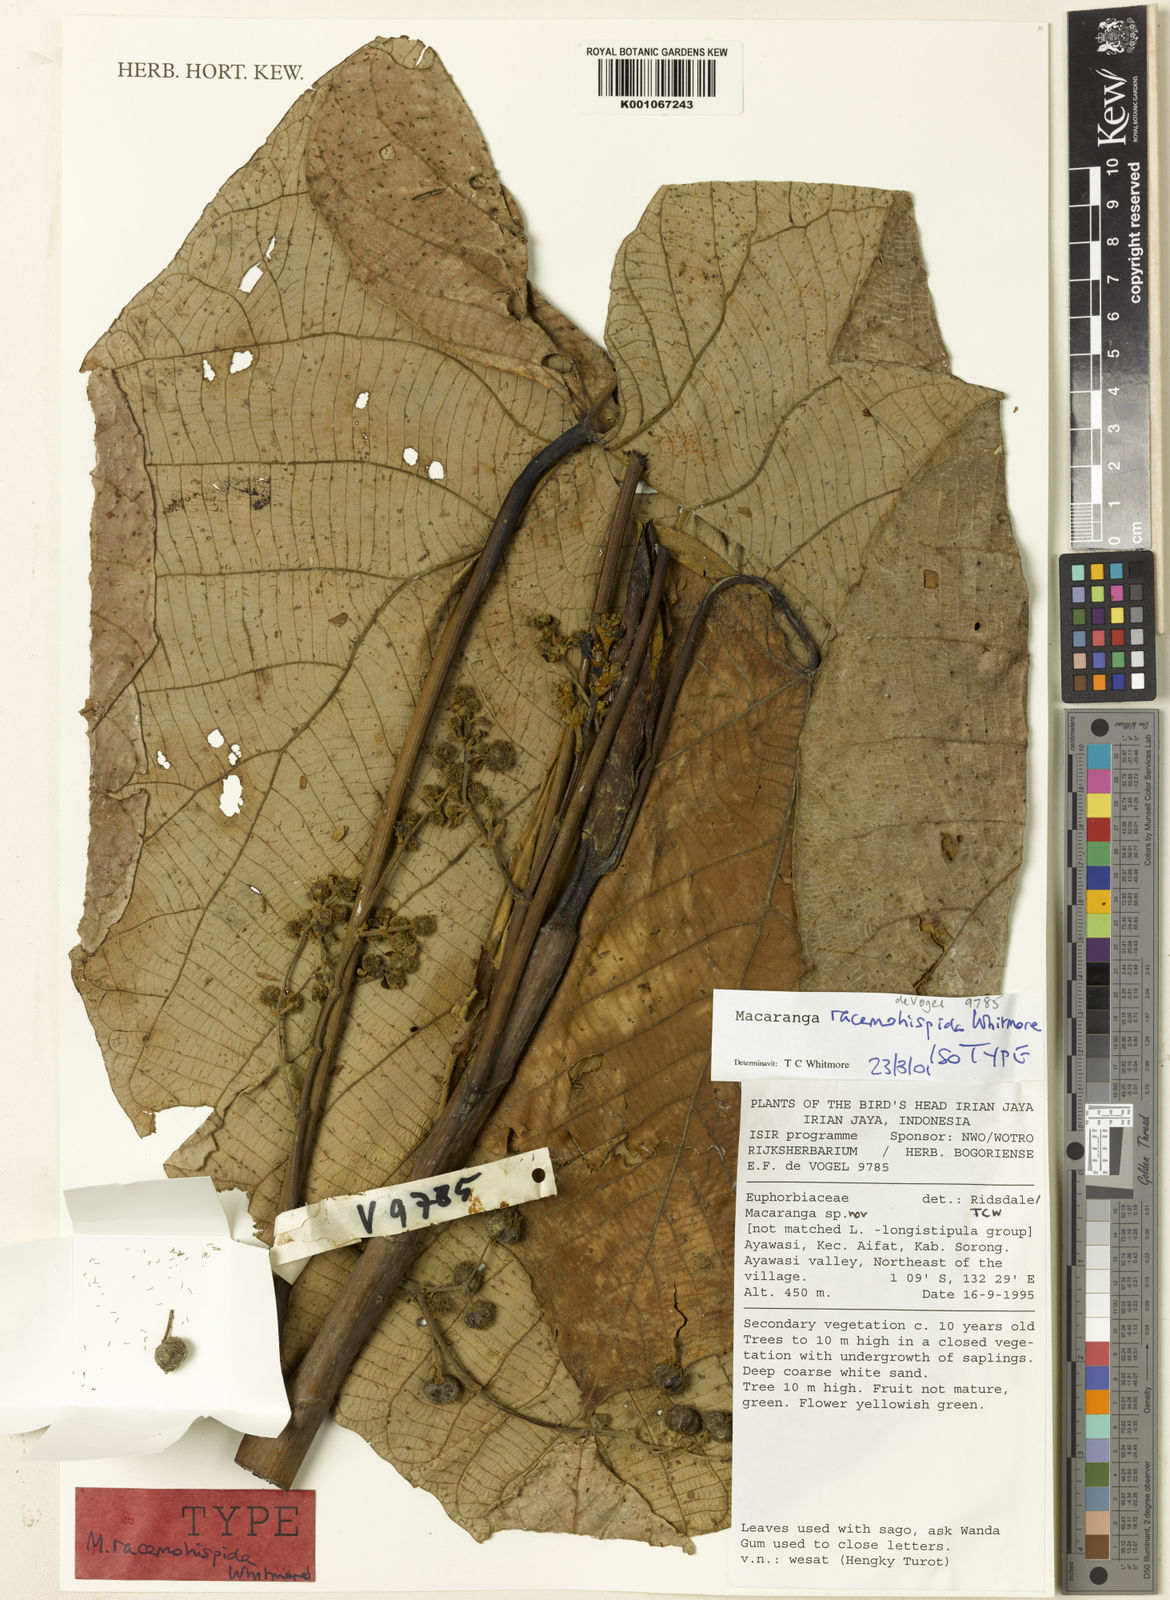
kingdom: Plantae
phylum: Tracheophyta
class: Magnoliopsida
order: Malpighiales
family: Euphorbiaceae
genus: Macaranga
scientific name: Macaranga racemohispida
